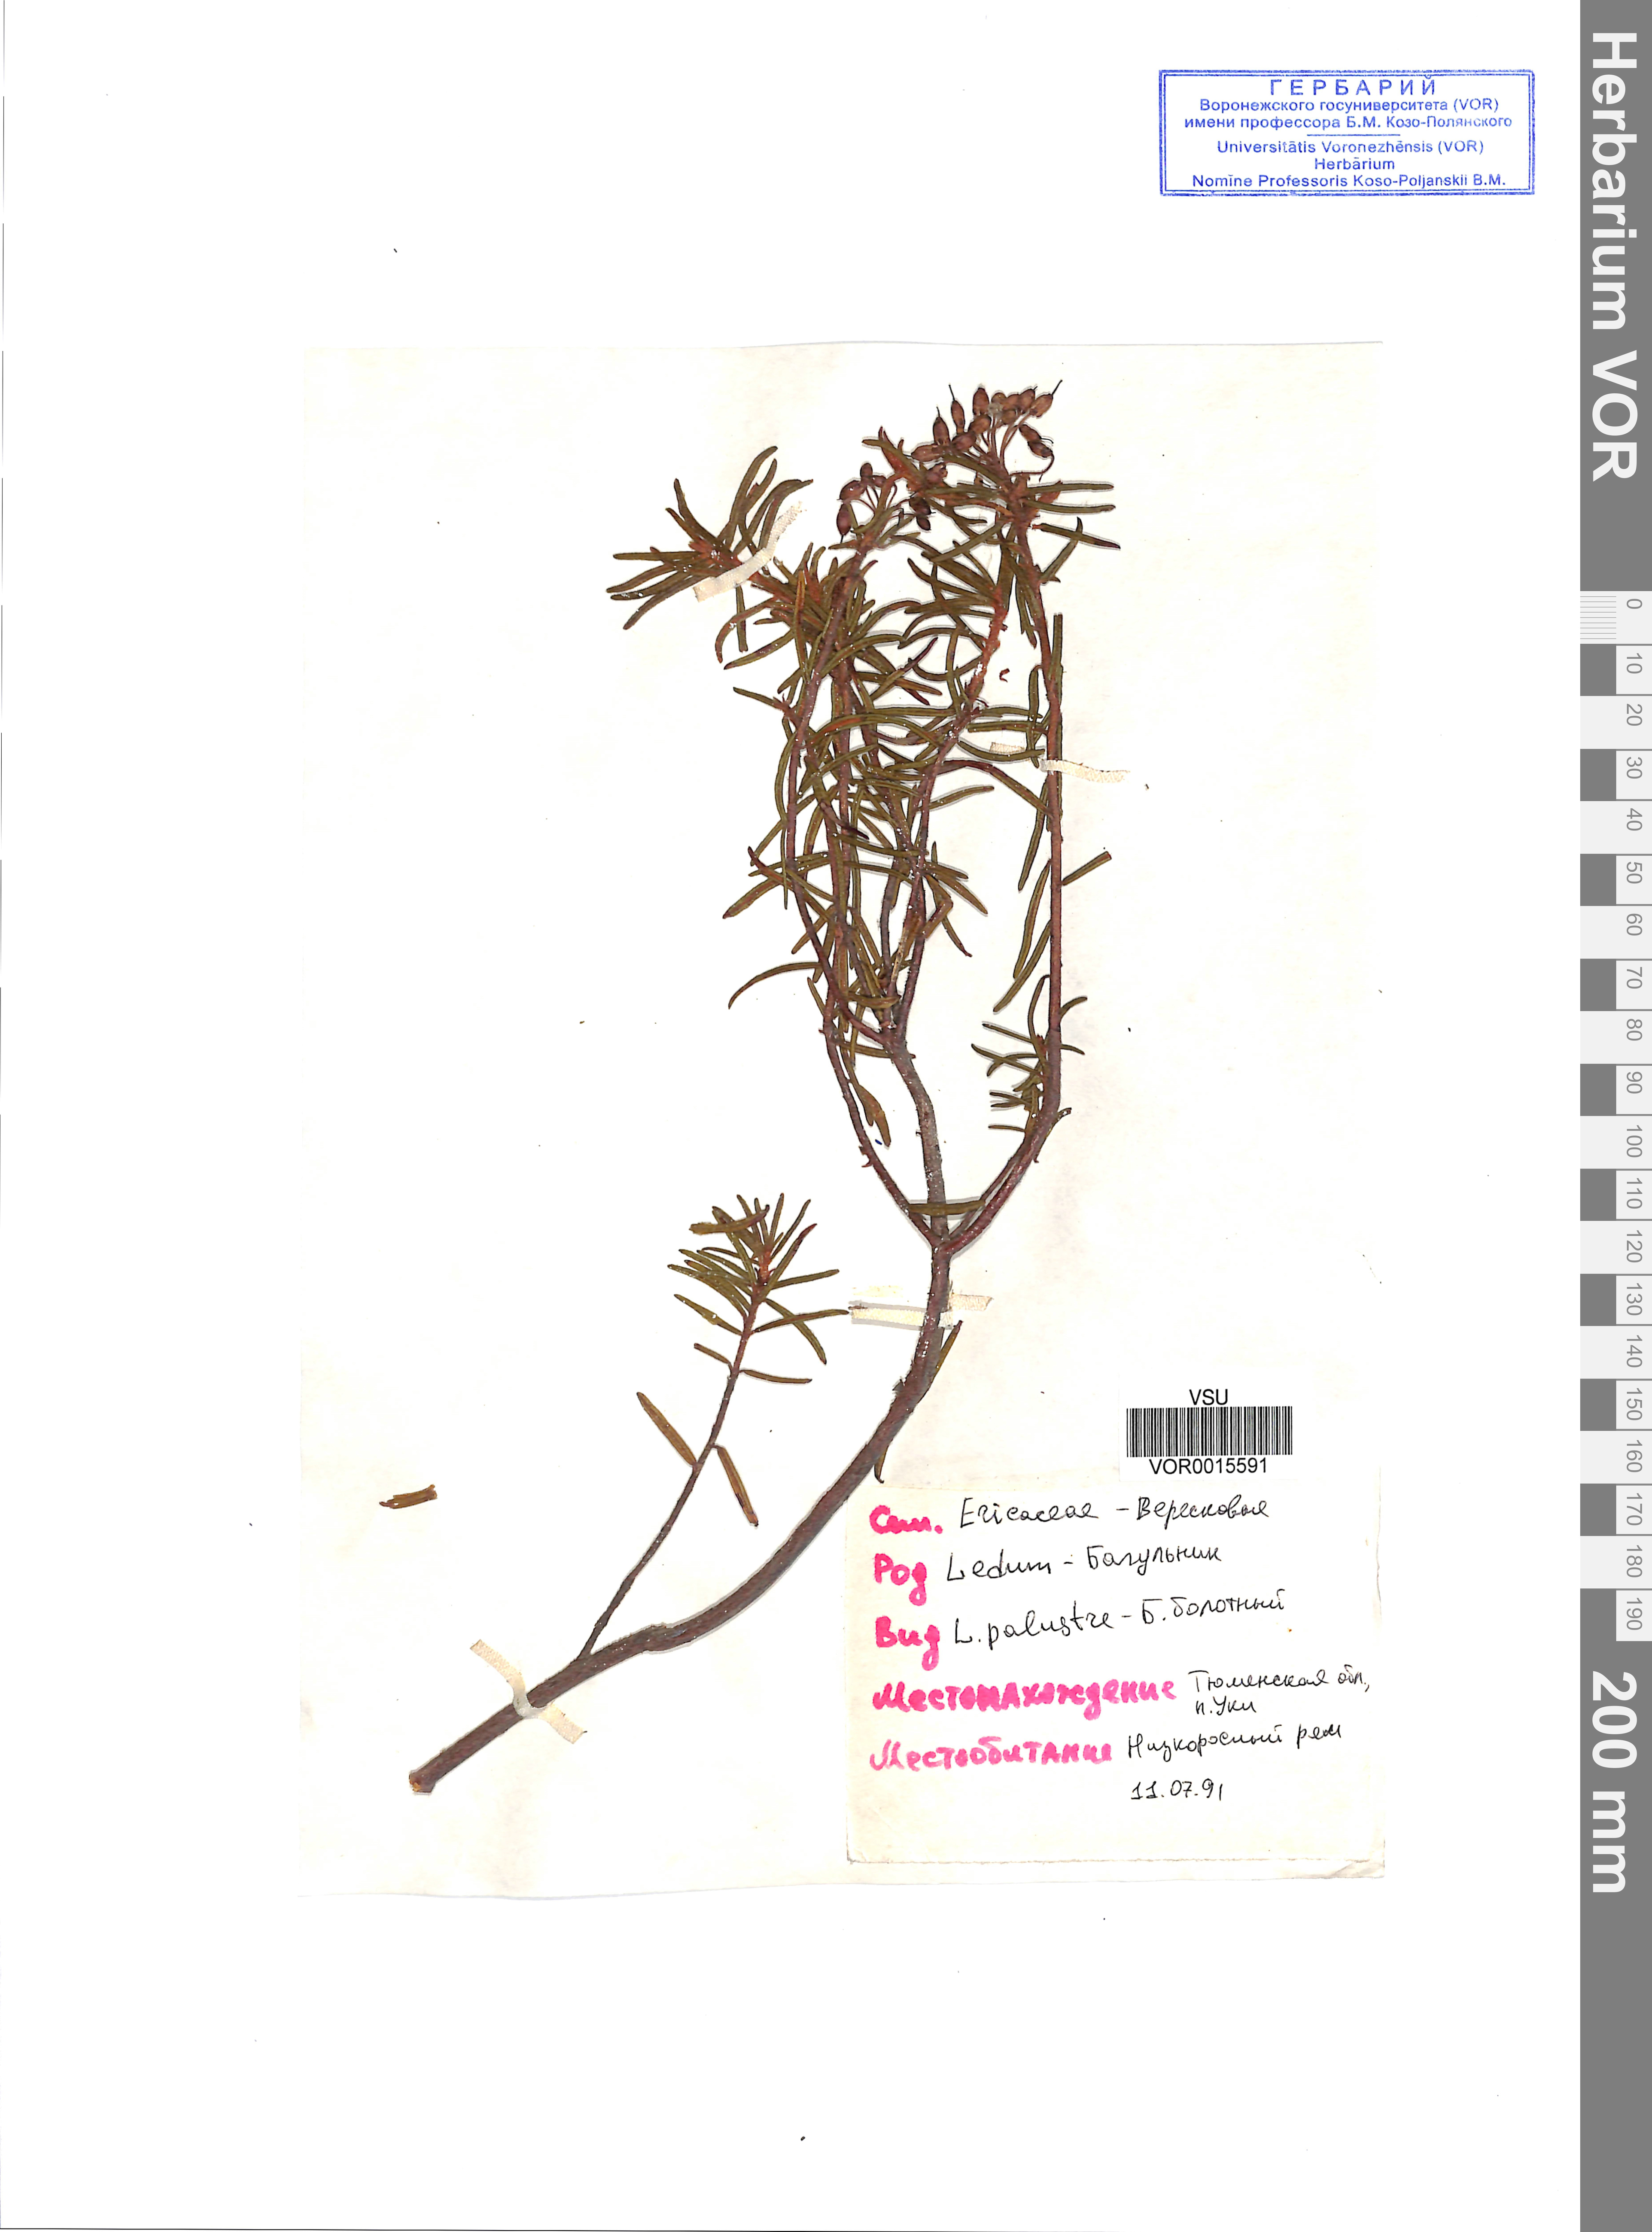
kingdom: Plantae
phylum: Tracheophyta
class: Magnoliopsida
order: Ericales
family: Ericaceae
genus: Rhododendron
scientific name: Rhododendron tomentosum
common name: Marsh labrador tea
